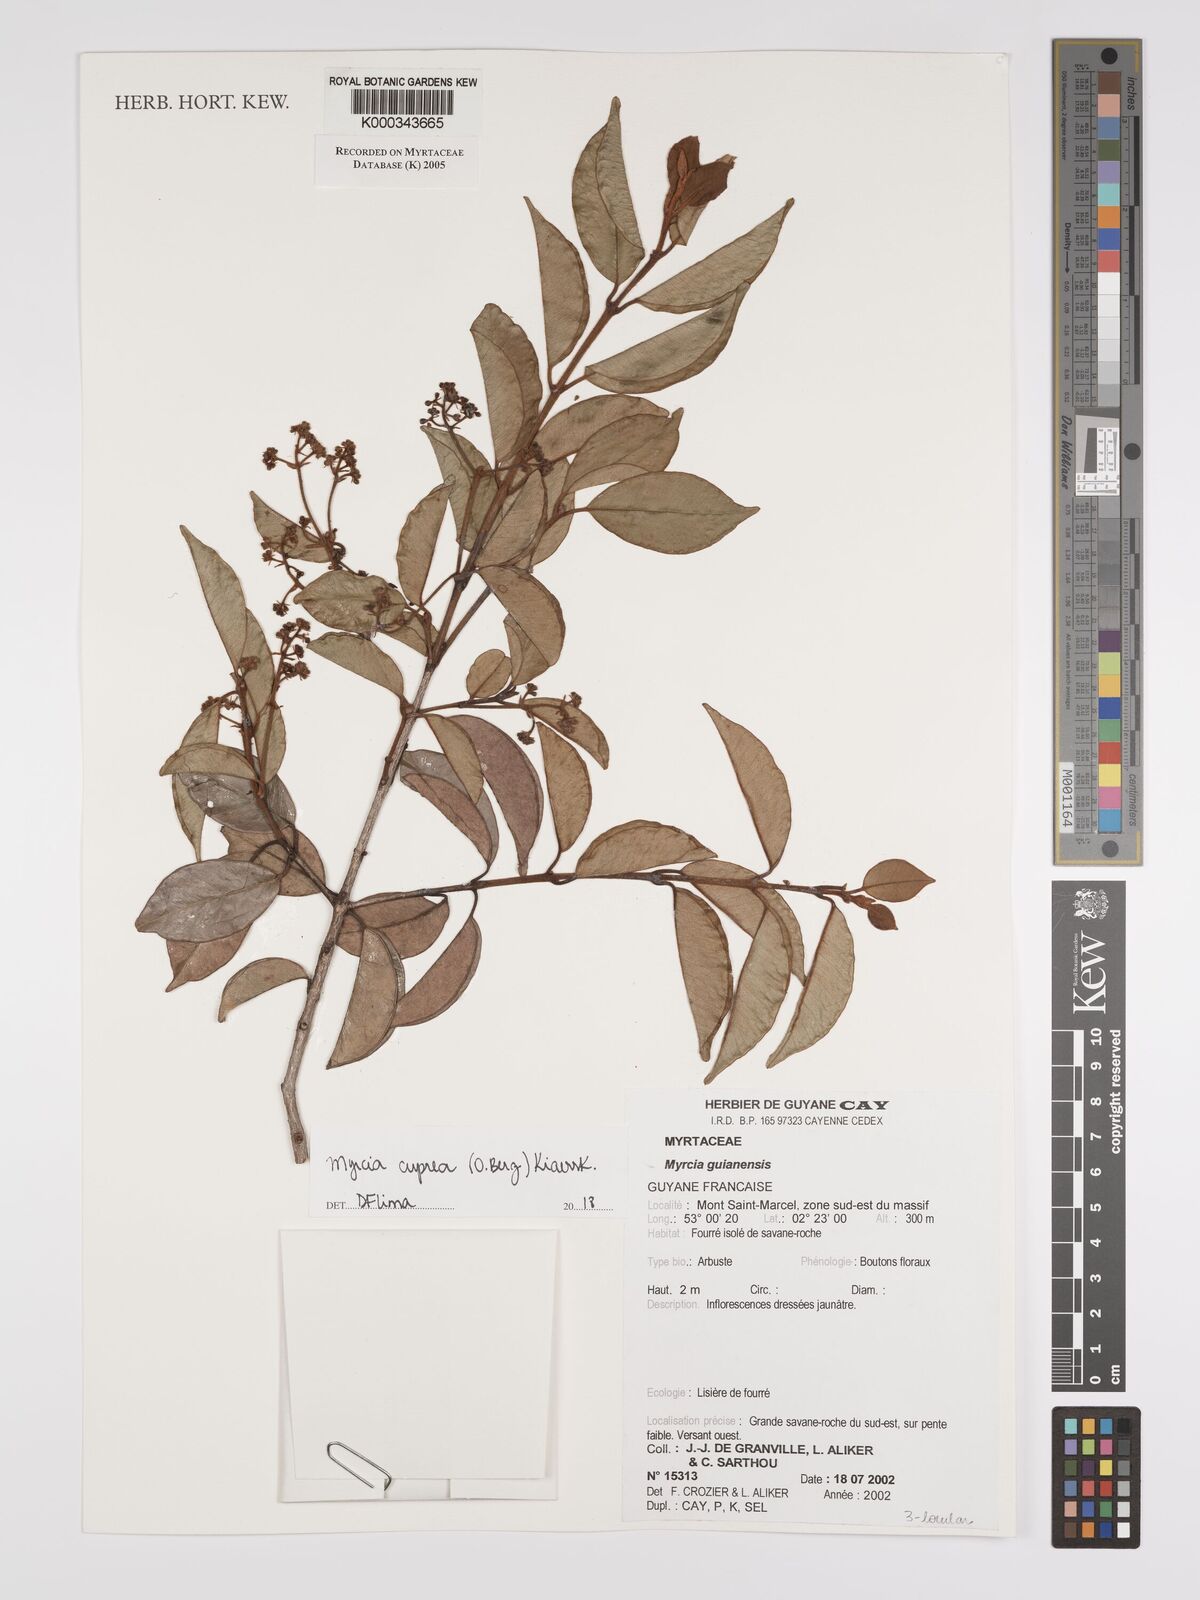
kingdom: Plantae
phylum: Tracheophyta
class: Magnoliopsida
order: Myrtales
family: Myrtaceae
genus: Myrcia
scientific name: Myrcia guianensis
